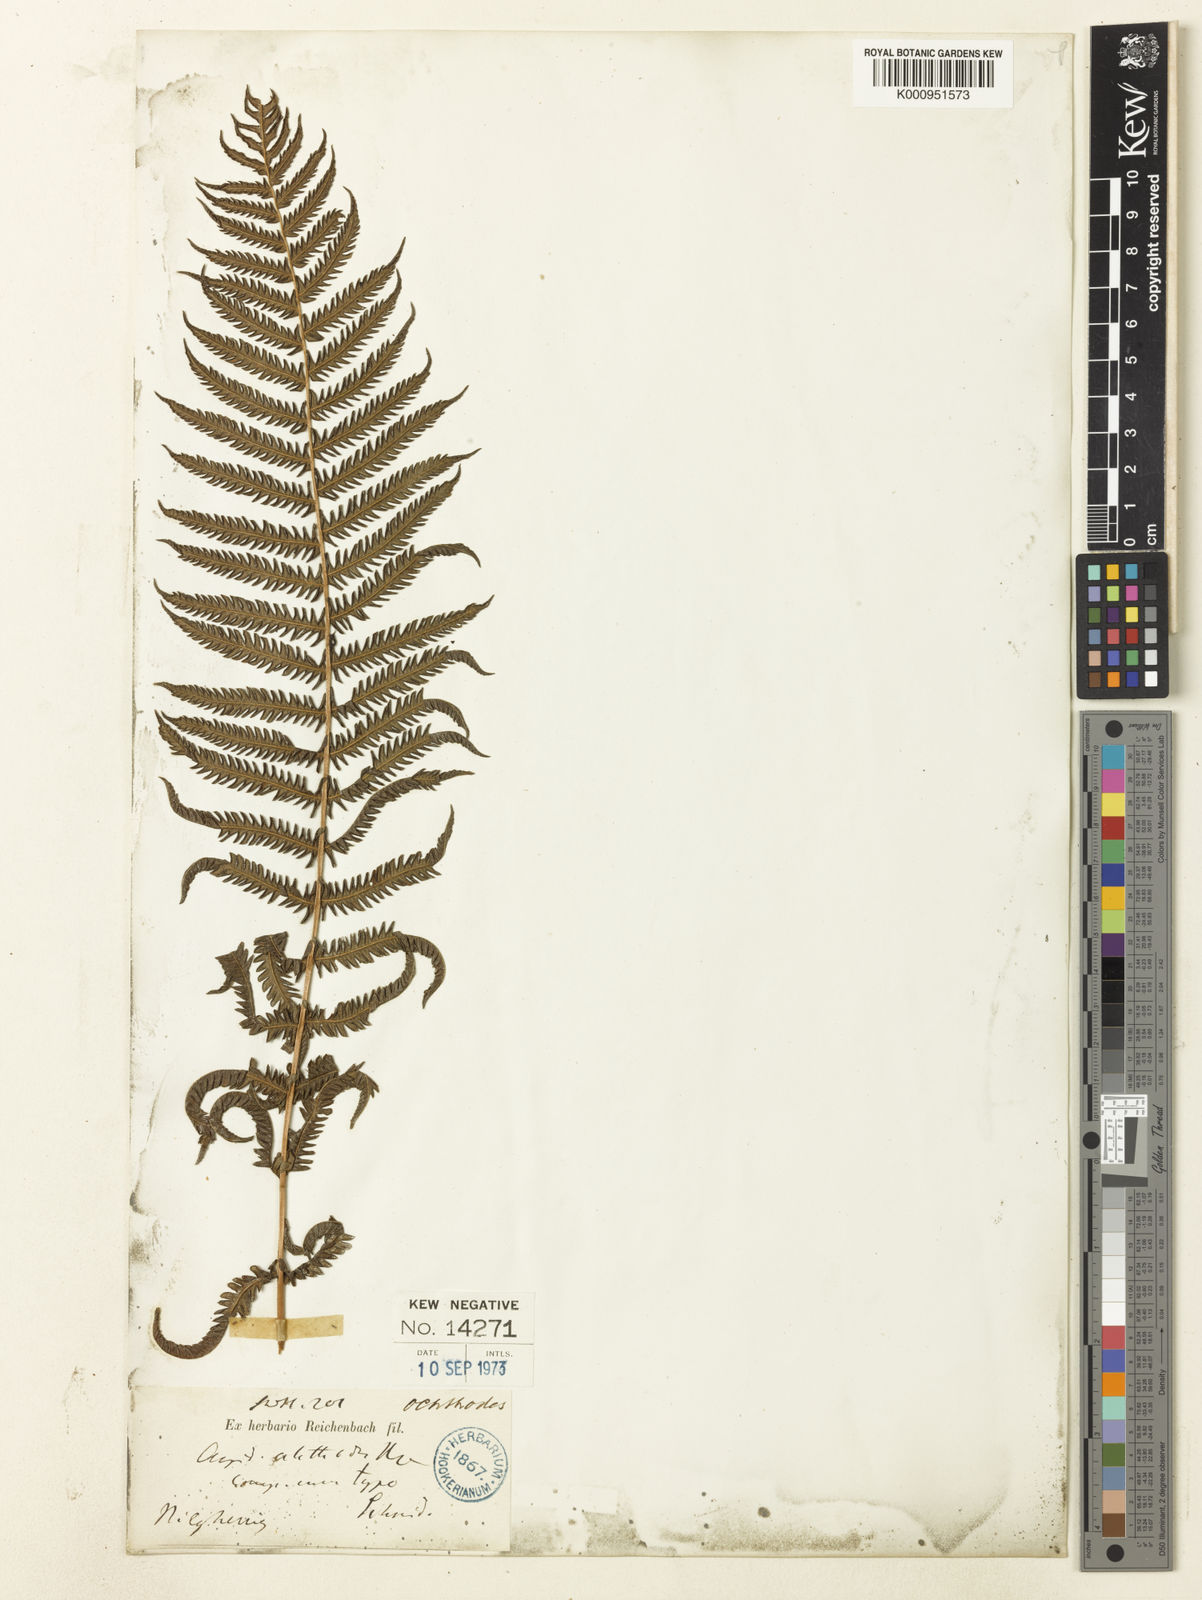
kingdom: Plantae
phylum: Tracheophyta
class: Polypodiopsida
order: Polypodiales
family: Thelypteridaceae
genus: Pseudocyclosorus
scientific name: Pseudocyclosorus ochthodes
